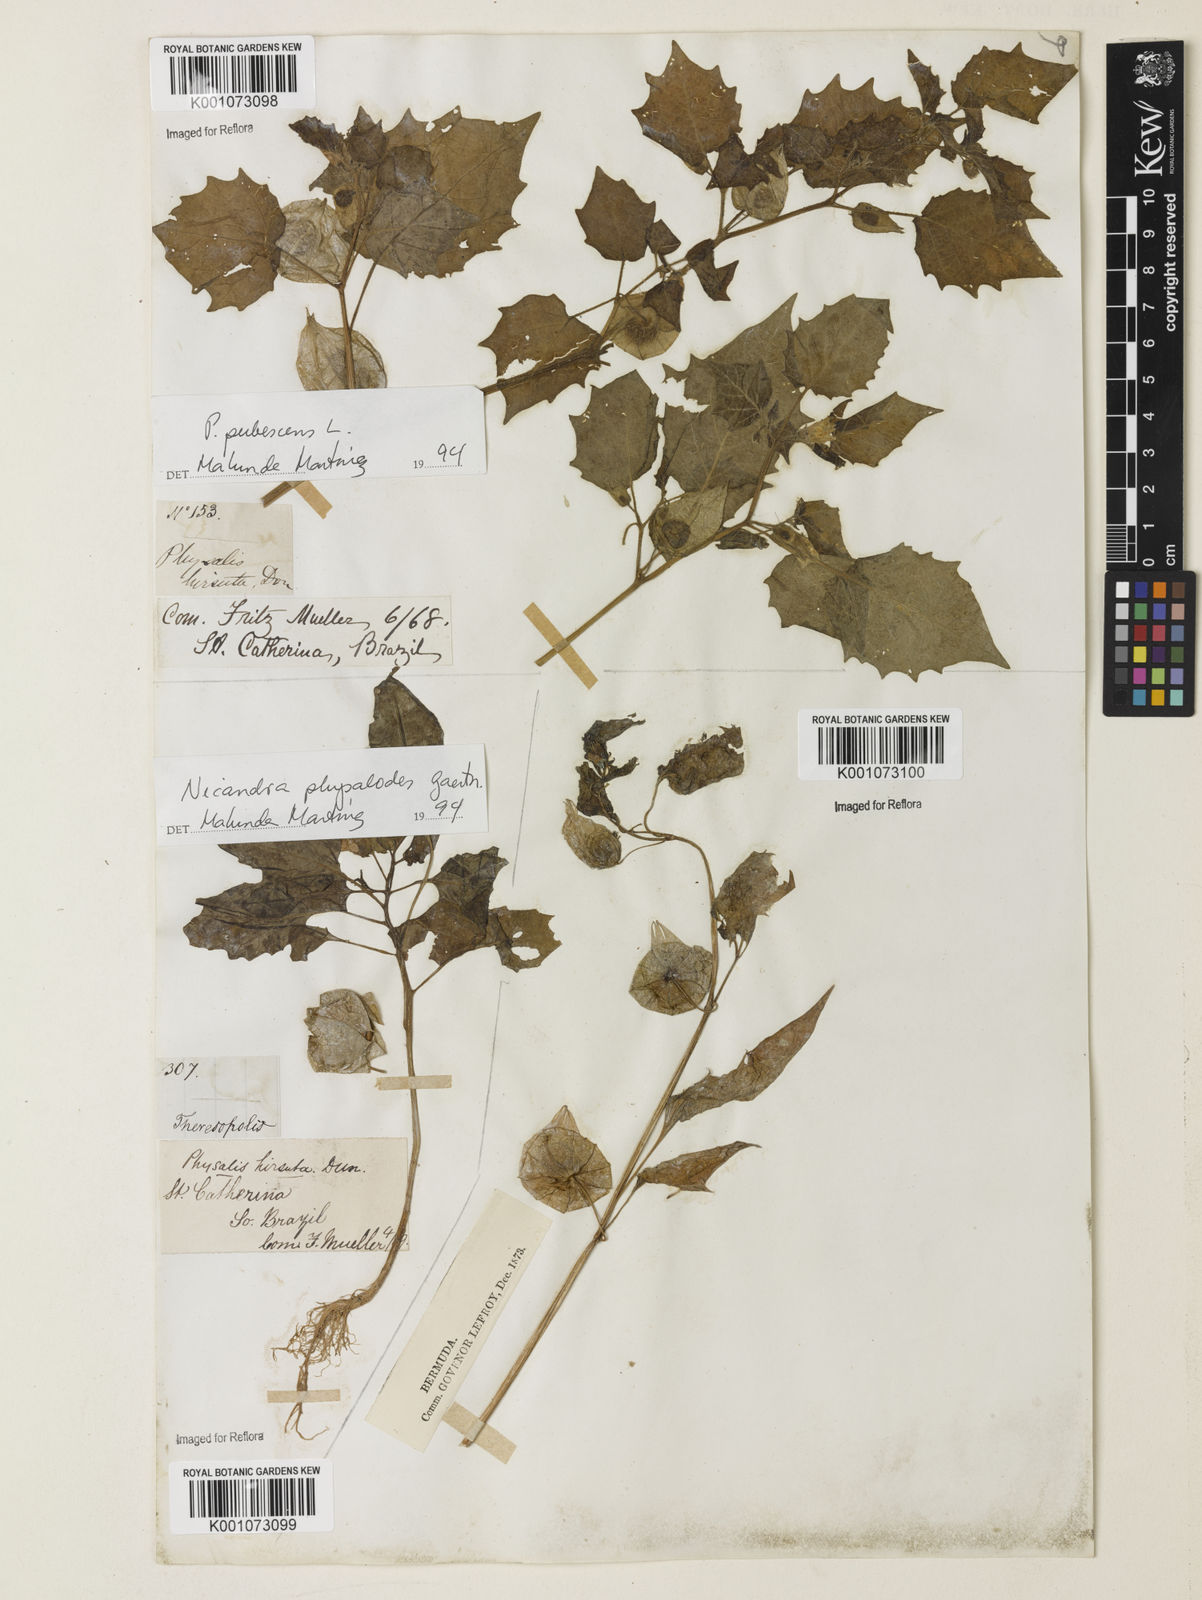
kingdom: Plantae
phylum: Tracheophyta
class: Magnoliopsida
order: Solanales
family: Solanaceae
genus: Nicandra
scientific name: Nicandra
